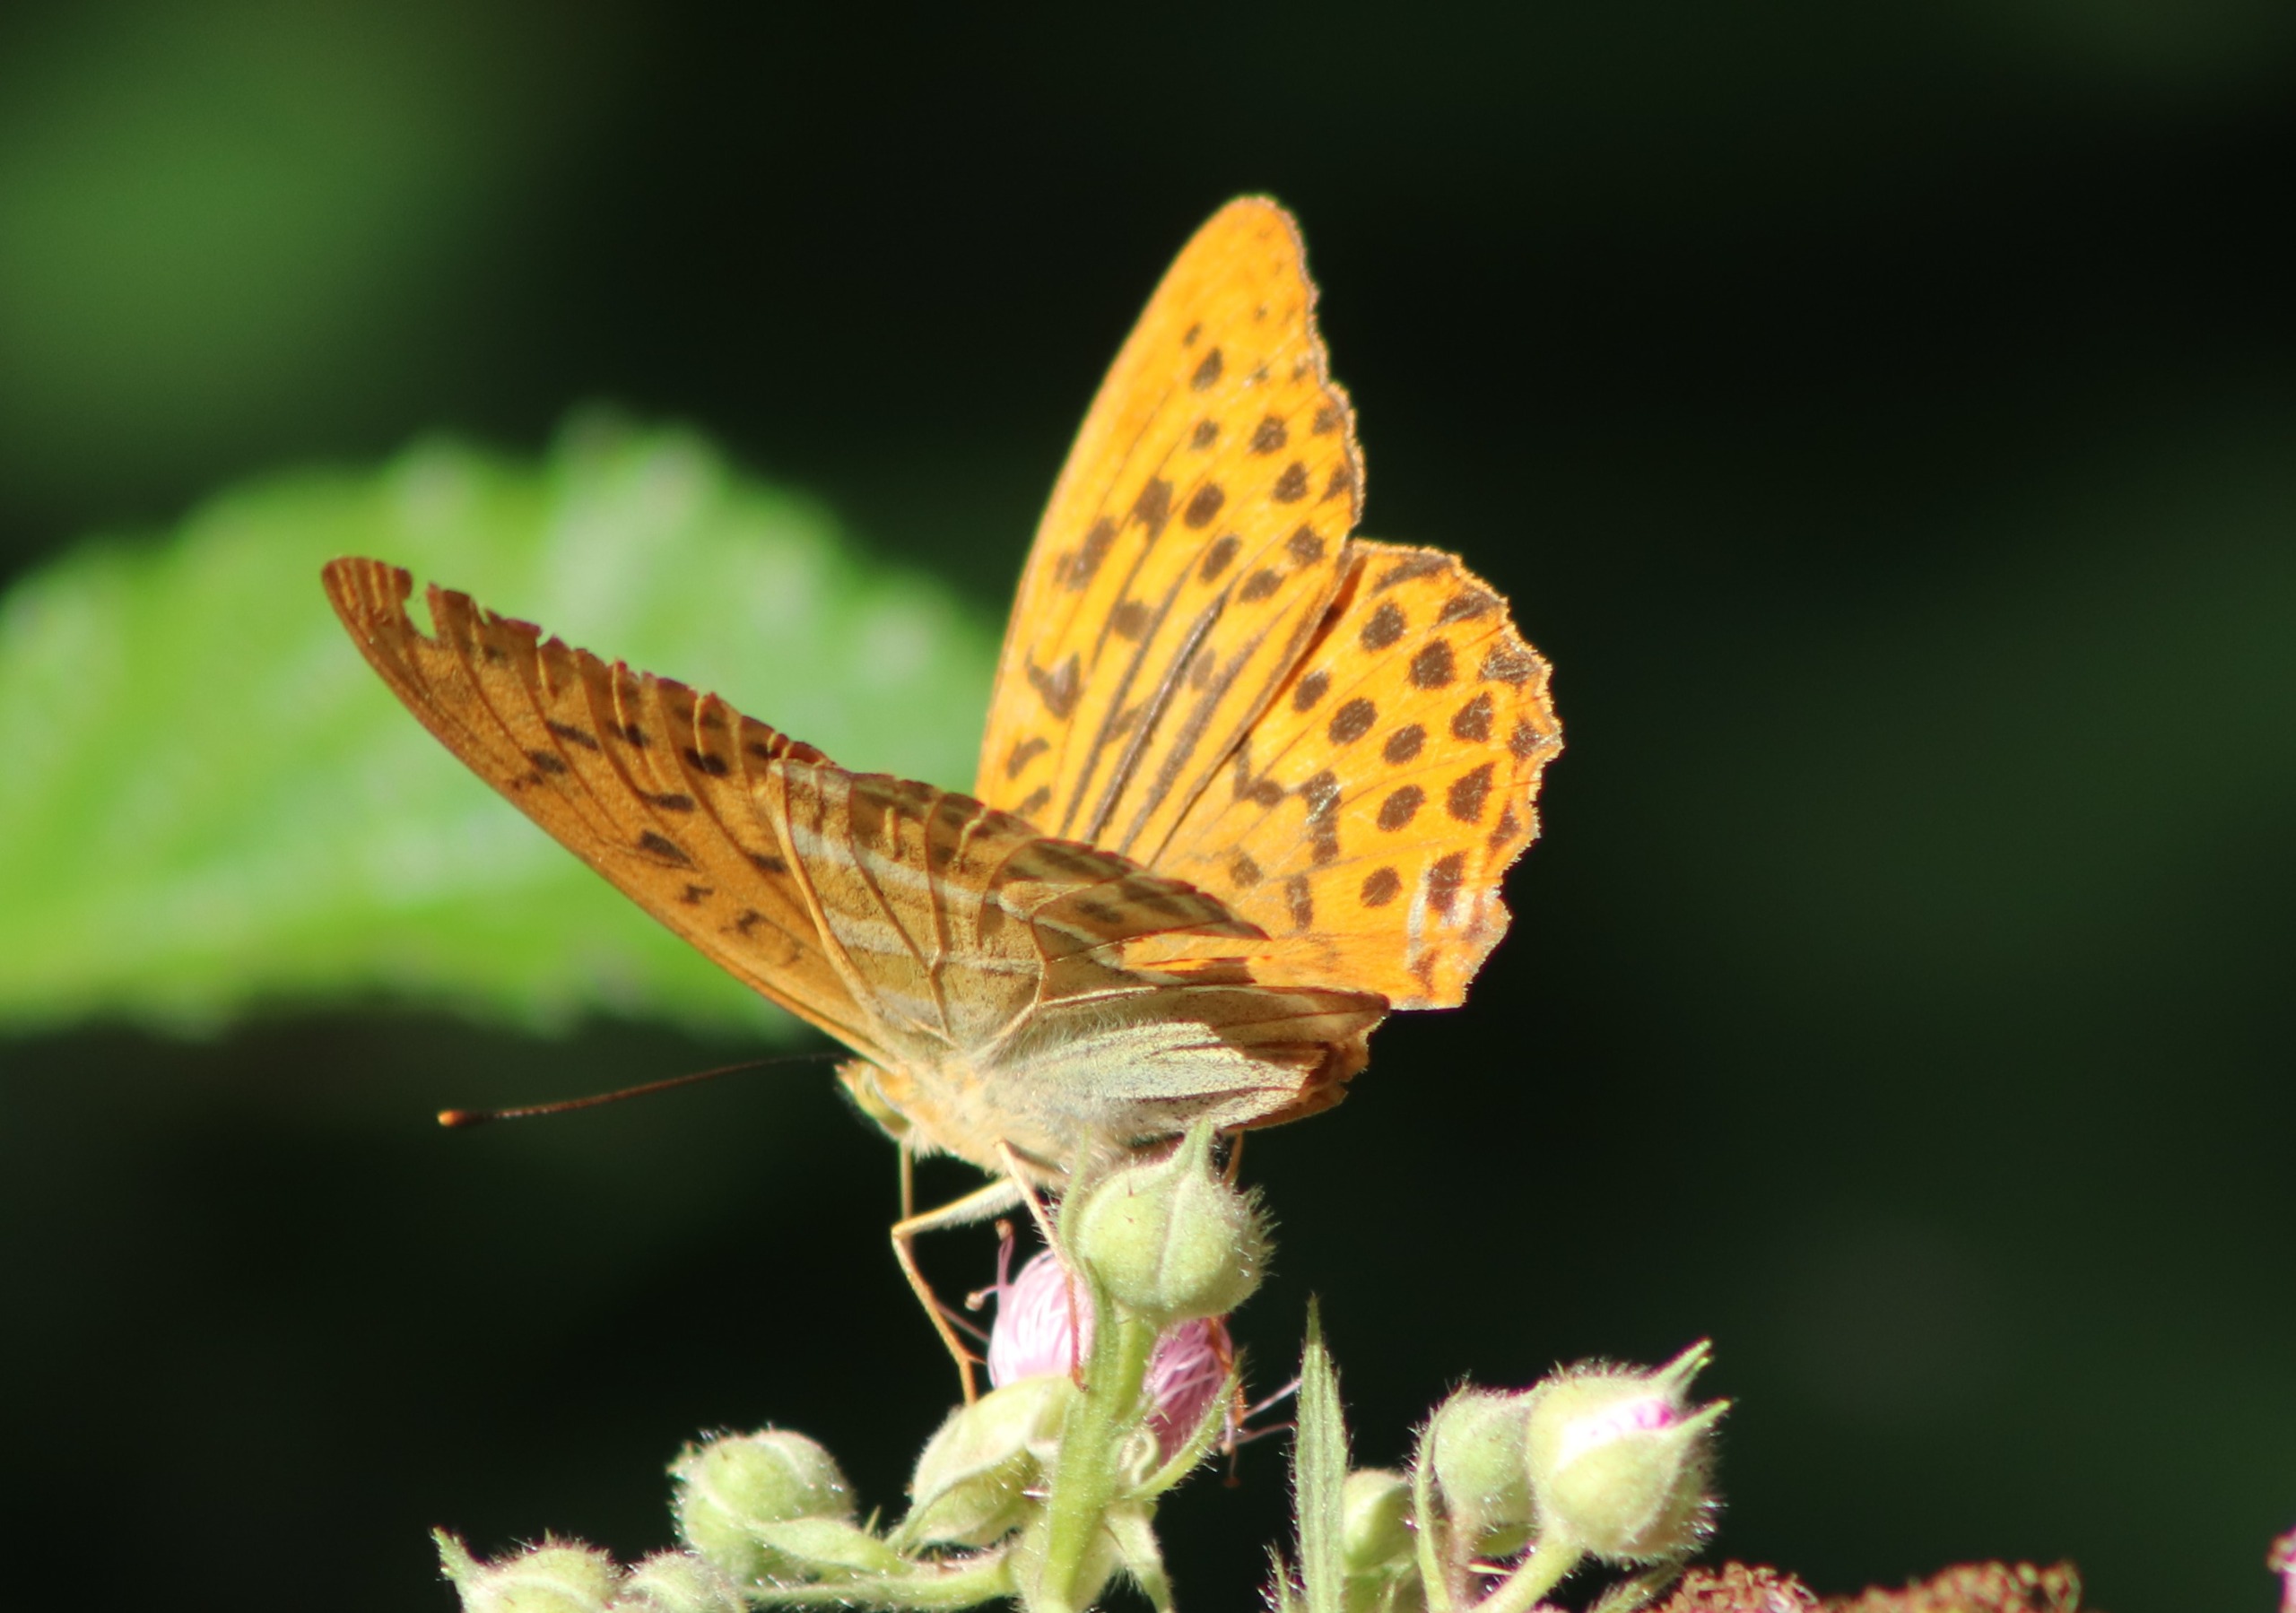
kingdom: Animalia
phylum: Arthropoda
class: Insecta
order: Lepidoptera
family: Nymphalidae
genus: Argynnis
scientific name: Argynnis paphia
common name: Kejserkåbe
